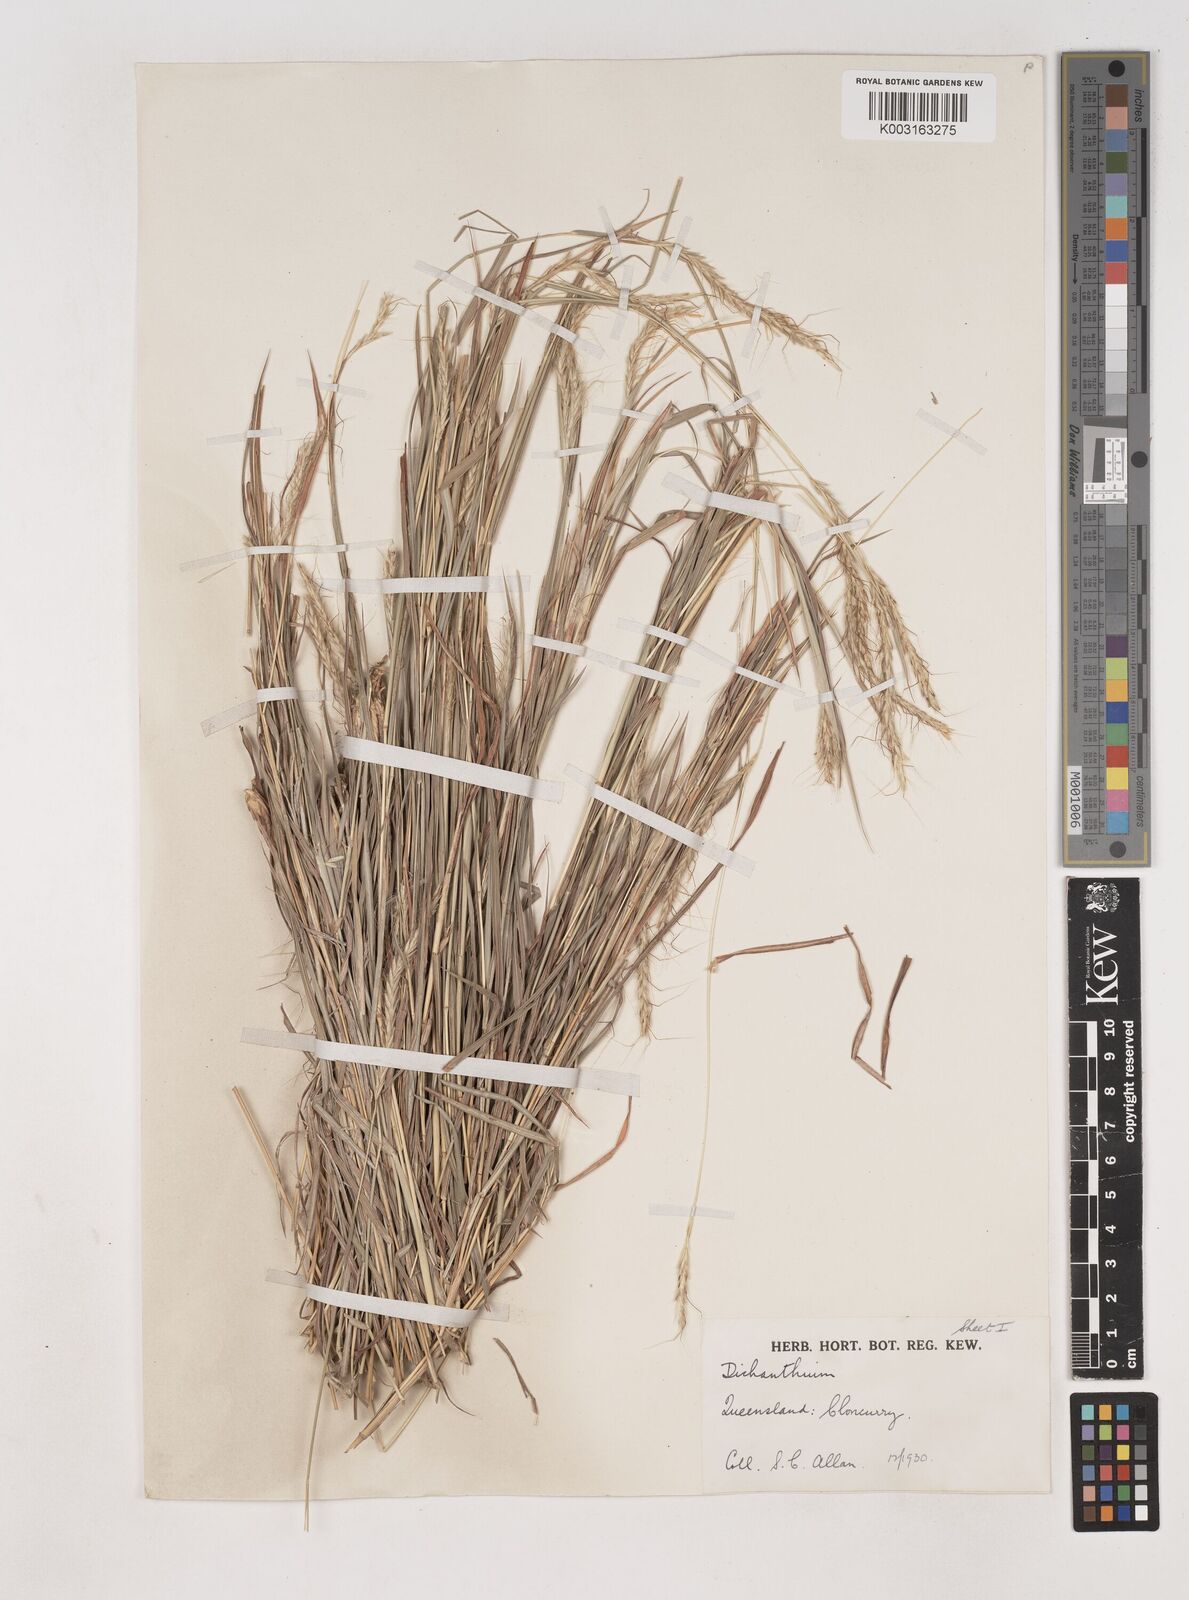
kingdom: Plantae
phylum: Tracheophyta
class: Liliopsida
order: Poales
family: Poaceae
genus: Dichanthium
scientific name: Dichanthium fecundum
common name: Bundle-bundle
